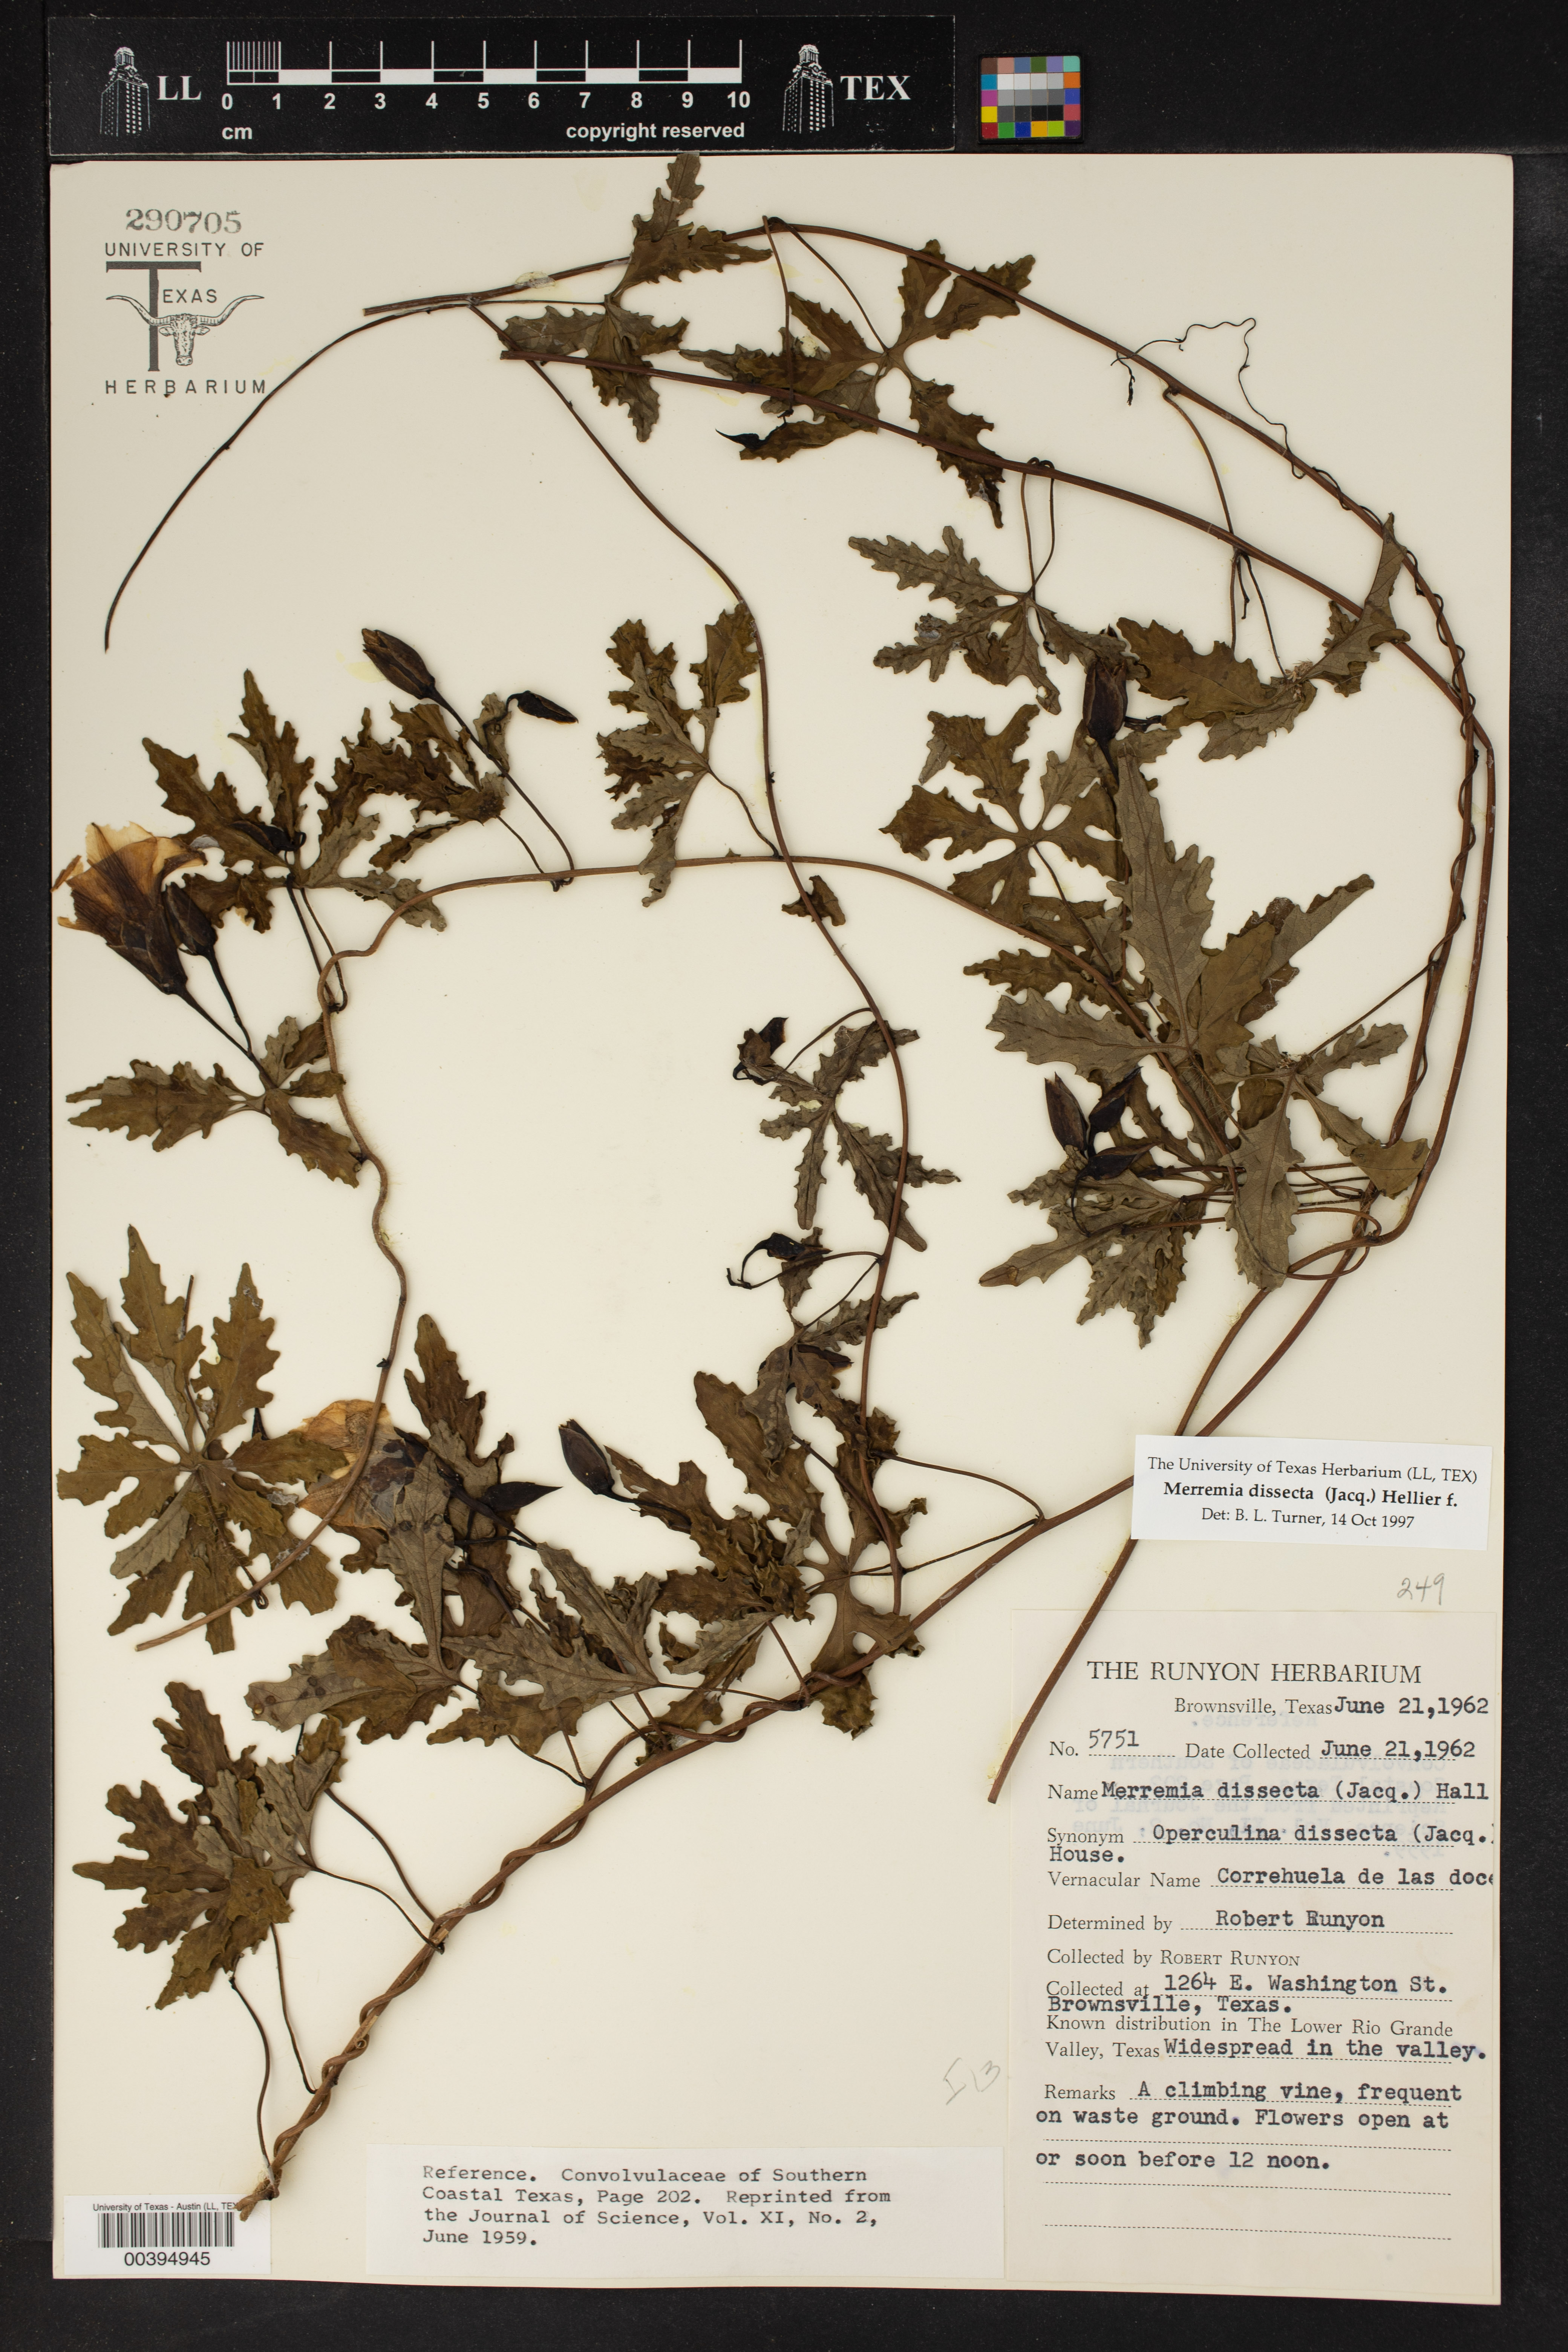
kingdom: Plantae
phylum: Tracheophyta
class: Magnoliopsida
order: Solanales
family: Convolvulaceae
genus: Distimake
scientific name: Distimake dissectus
